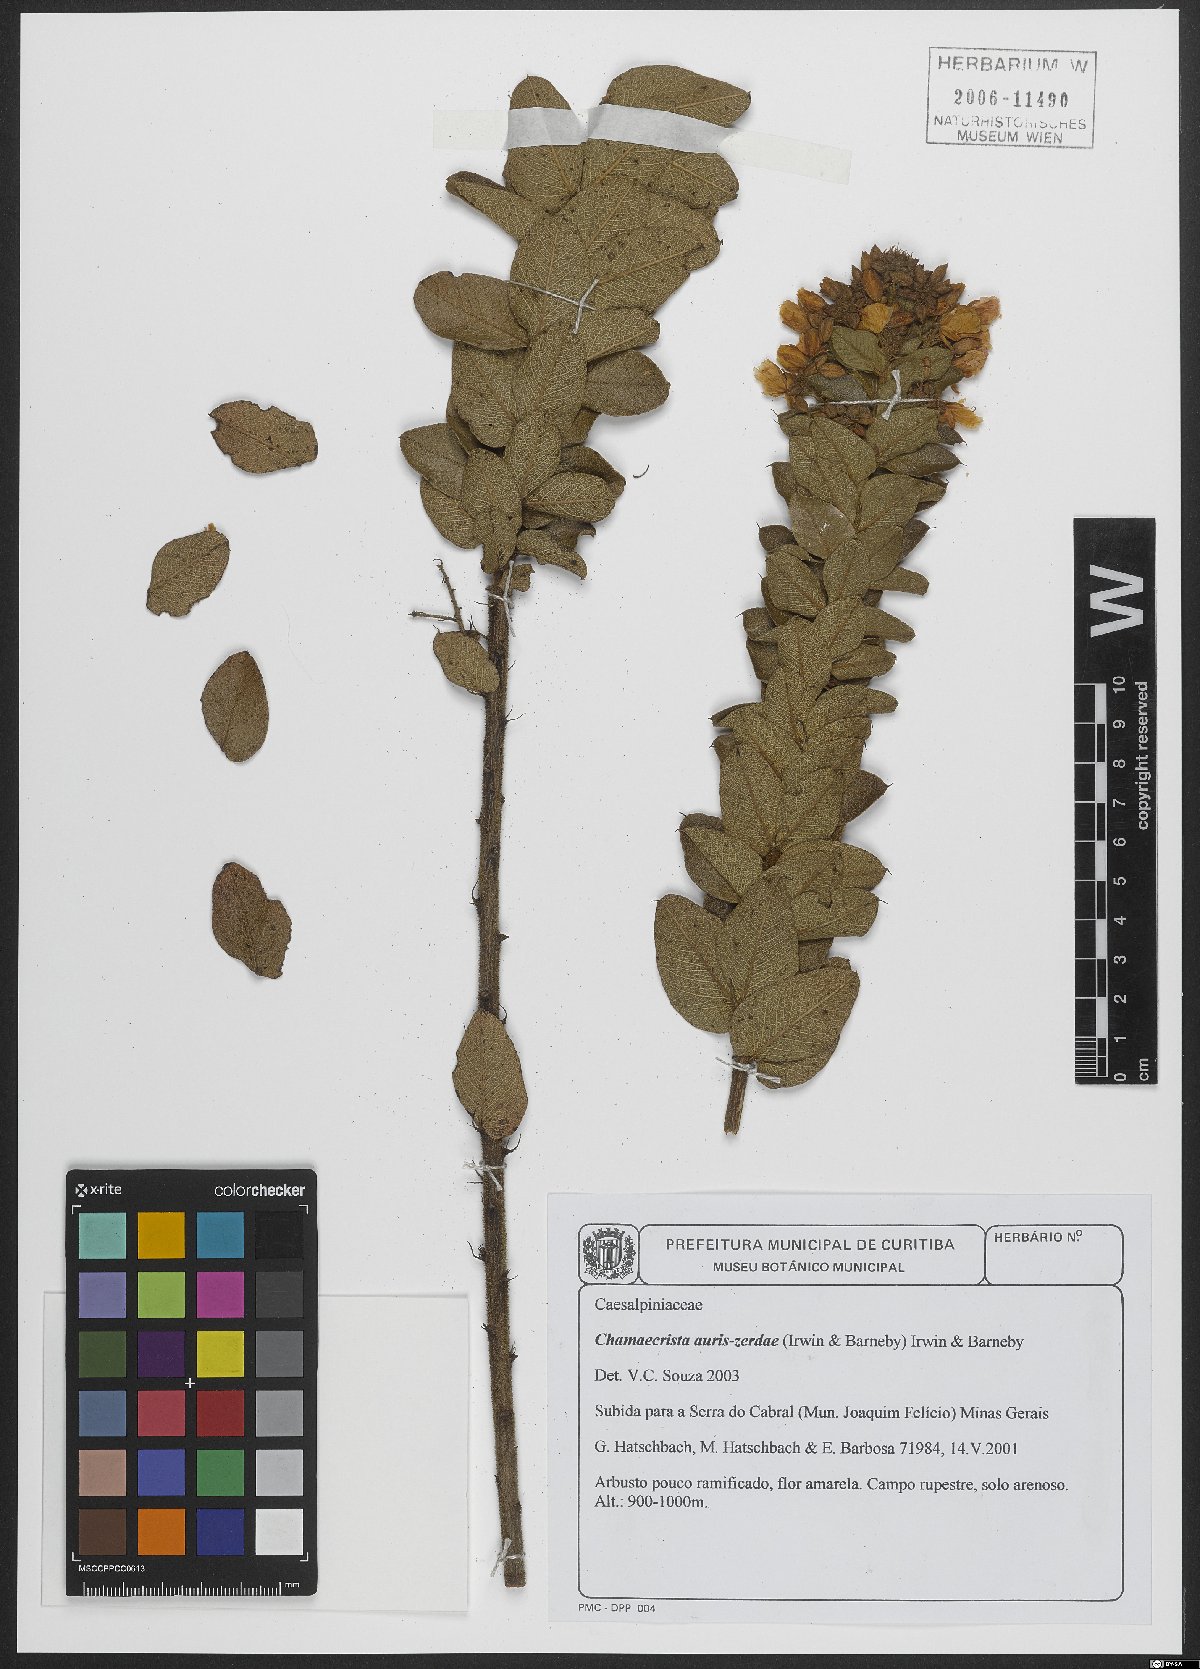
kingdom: Plantae
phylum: Tracheophyta
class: Magnoliopsida
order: Fabales
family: Fabaceae
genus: Chamaecrista
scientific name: Chamaecrista auris-zerdae
